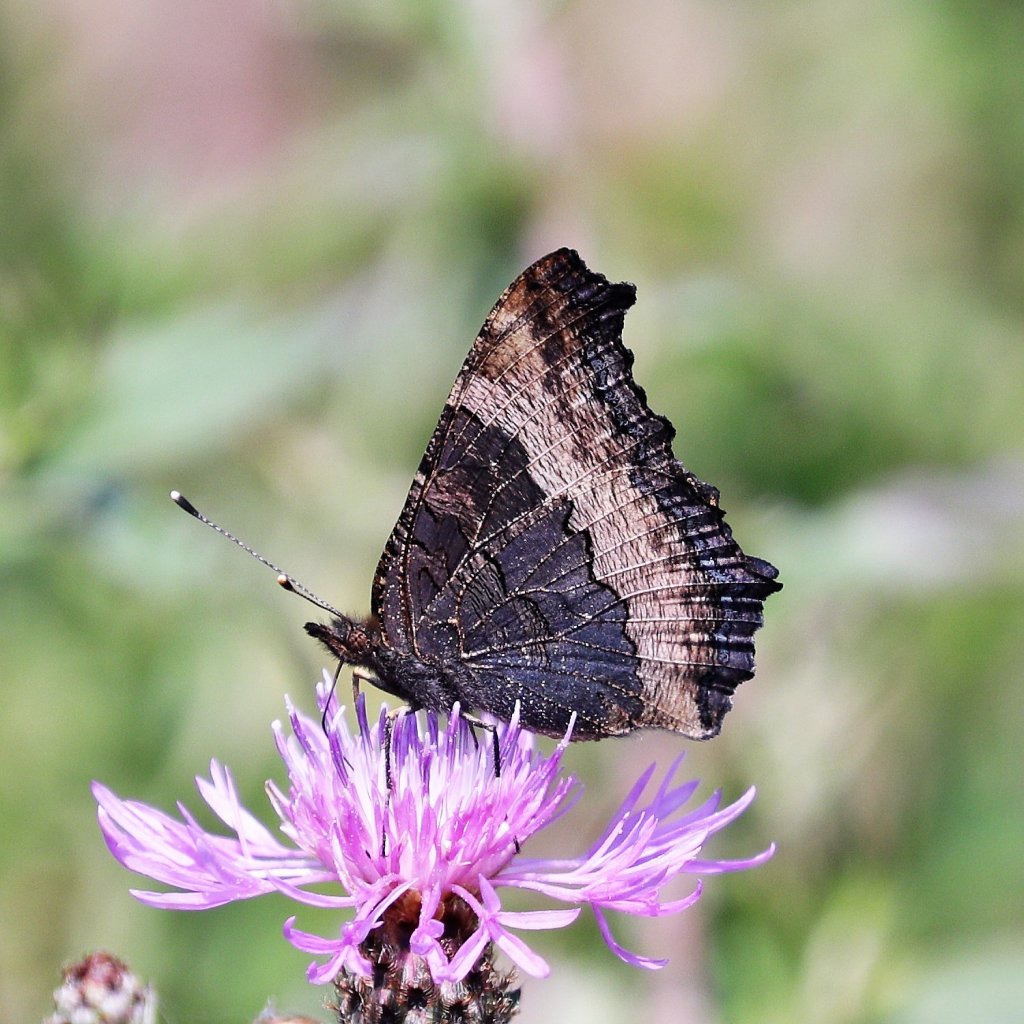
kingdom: Animalia
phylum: Arthropoda
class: Insecta
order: Lepidoptera
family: Nymphalidae
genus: Aglais
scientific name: Aglais milberti
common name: Milbert's Tortoiseshell
